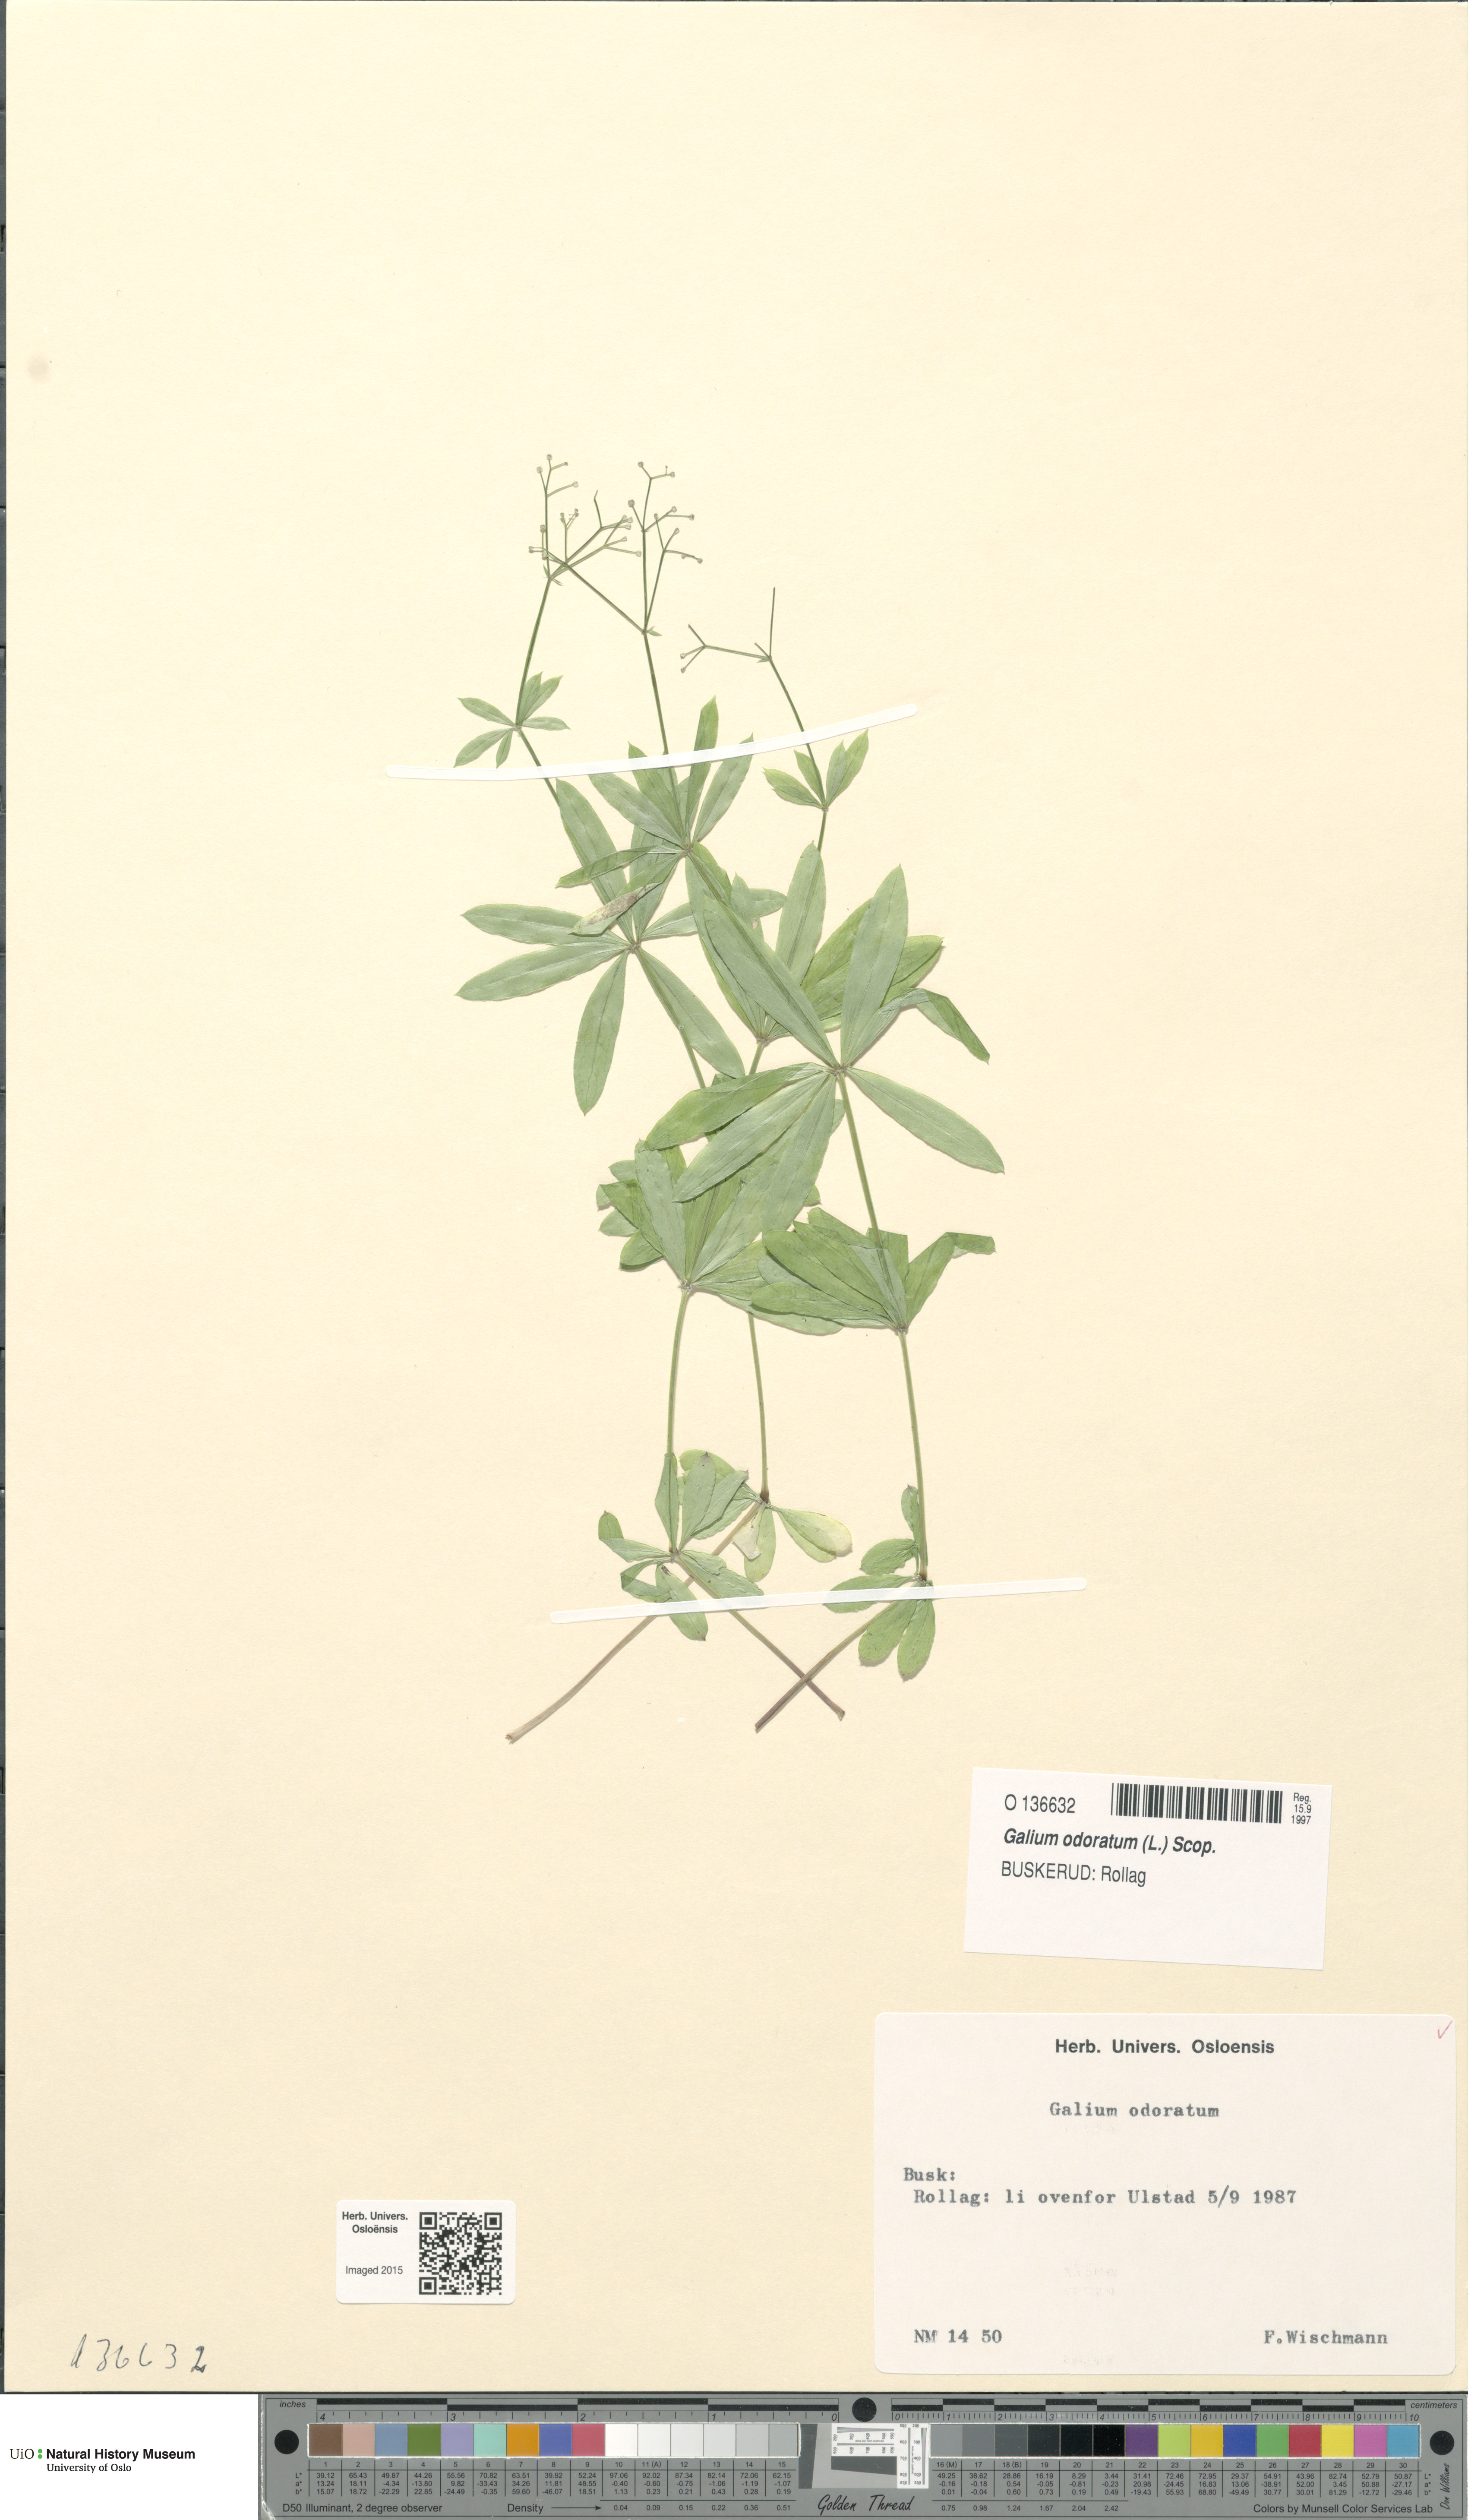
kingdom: Plantae
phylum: Tracheophyta
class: Magnoliopsida
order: Gentianales
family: Rubiaceae
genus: Galium
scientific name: Galium odoratum
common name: Sweet woodruff
